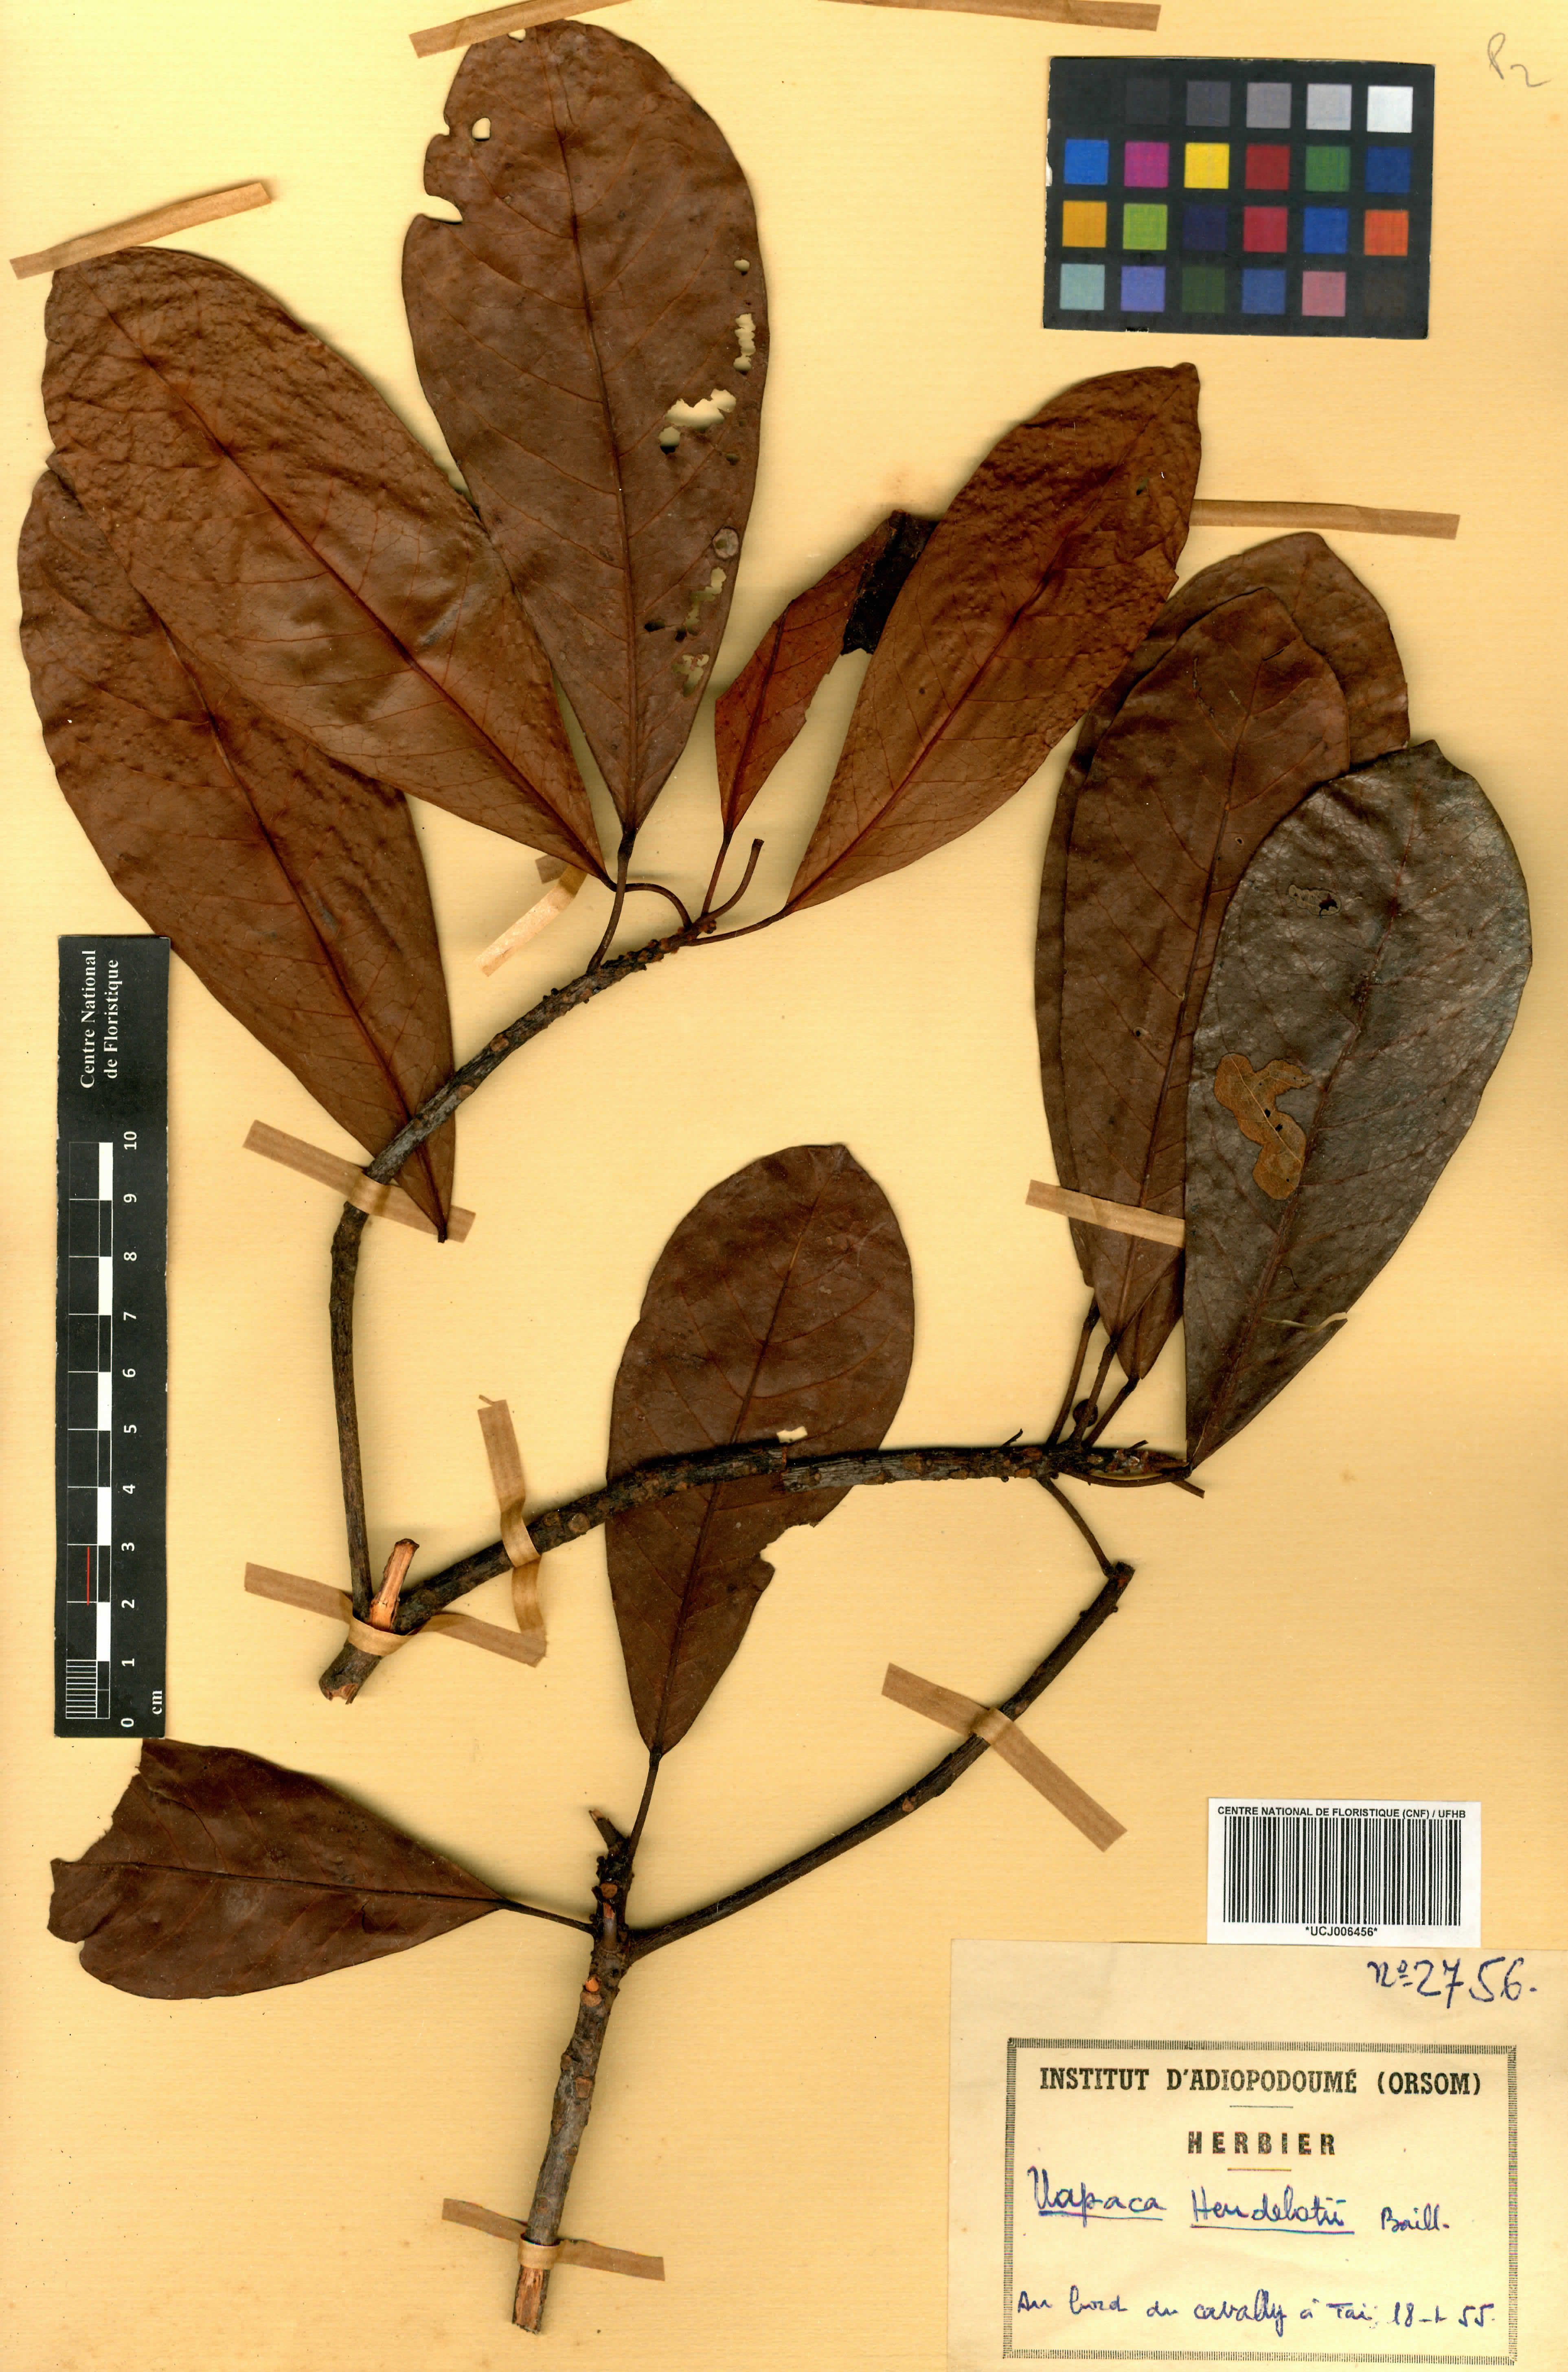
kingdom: Plantae
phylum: Tracheophyta
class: Magnoliopsida
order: Malpighiales
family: Phyllanthaceae
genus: Uapaca
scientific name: Uapaca heudelotii
